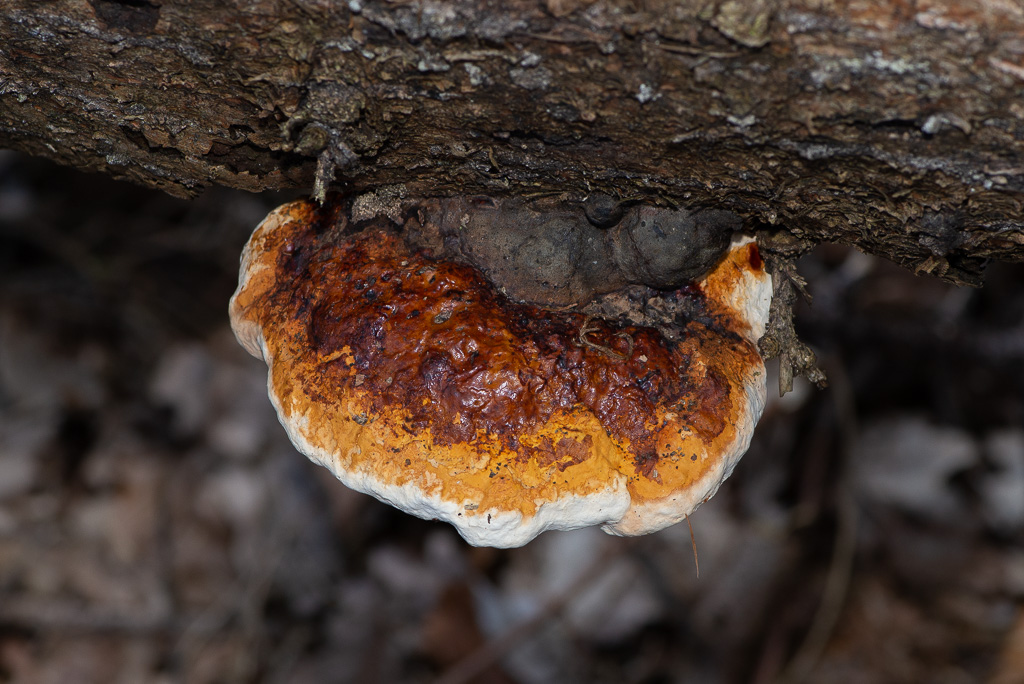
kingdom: Fungi
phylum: Basidiomycota
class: Agaricomycetes
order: Polyporales
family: Fomitopsidaceae
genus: Fomitopsis
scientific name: Fomitopsis pinicola
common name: randbæltet hovporesvamp
